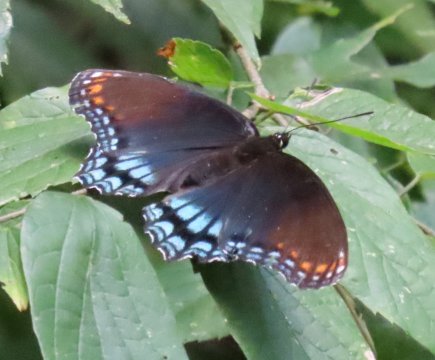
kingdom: Animalia
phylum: Arthropoda
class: Insecta
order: Lepidoptera
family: Nymphalidae
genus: Limenitis
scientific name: Limenitis arthemis
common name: Red-spotted Admiral
